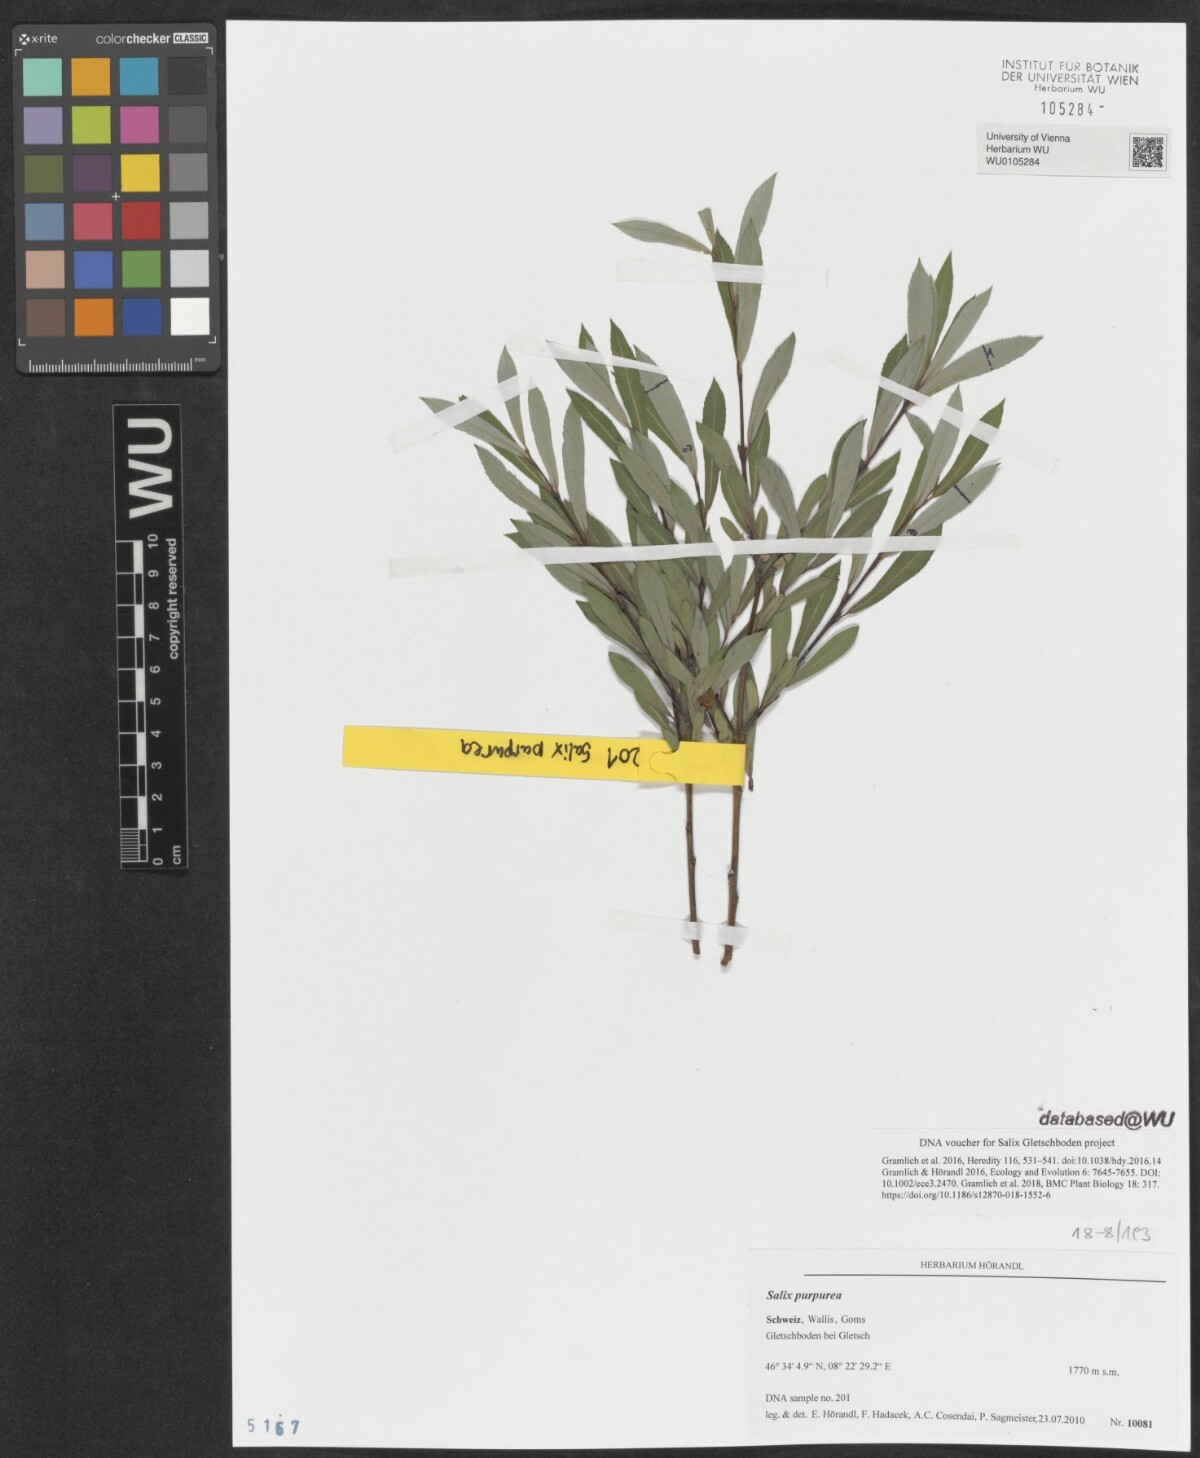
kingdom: Plantae
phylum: Tracheophyta
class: Magnoliopsida
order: Malpighiales
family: Salicaceae
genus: Salix
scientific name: Salix purpurea
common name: Purple willow
